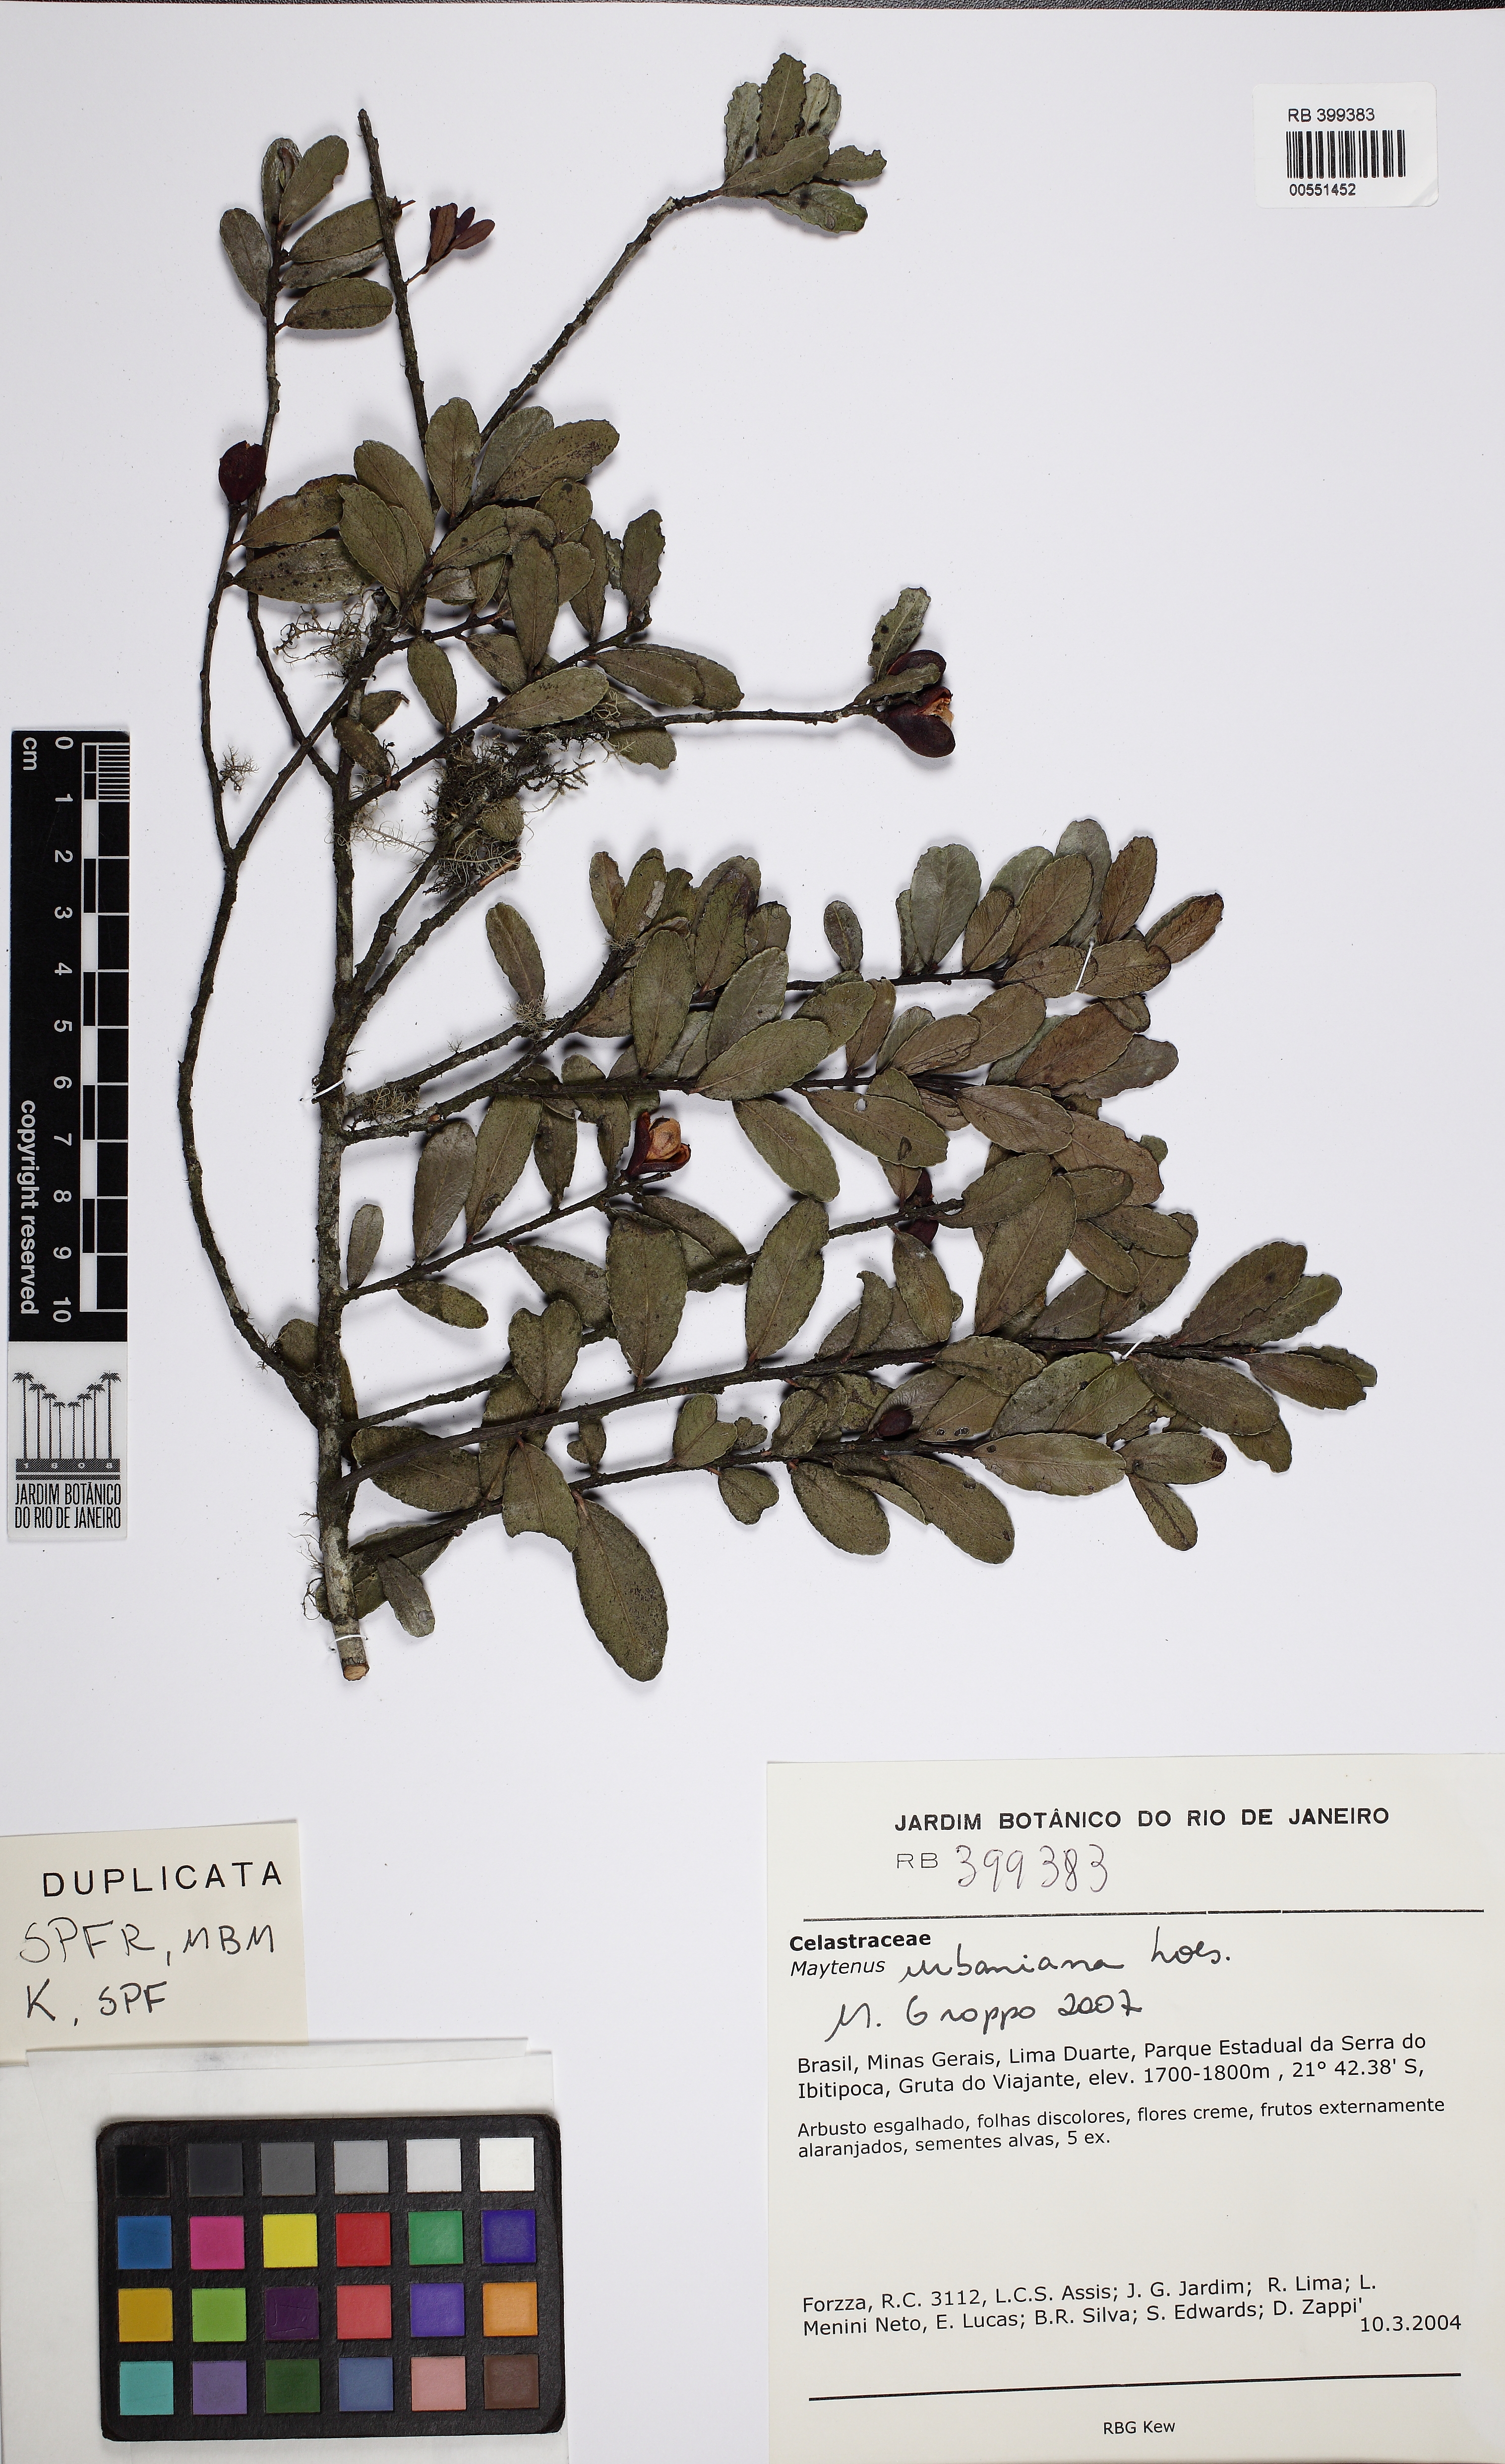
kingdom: Plantae
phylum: Tracheophyta
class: Magnoliopsida
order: Celastrales
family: Celastraceae
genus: Monteverdia
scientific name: Monteverdia urbaniana
